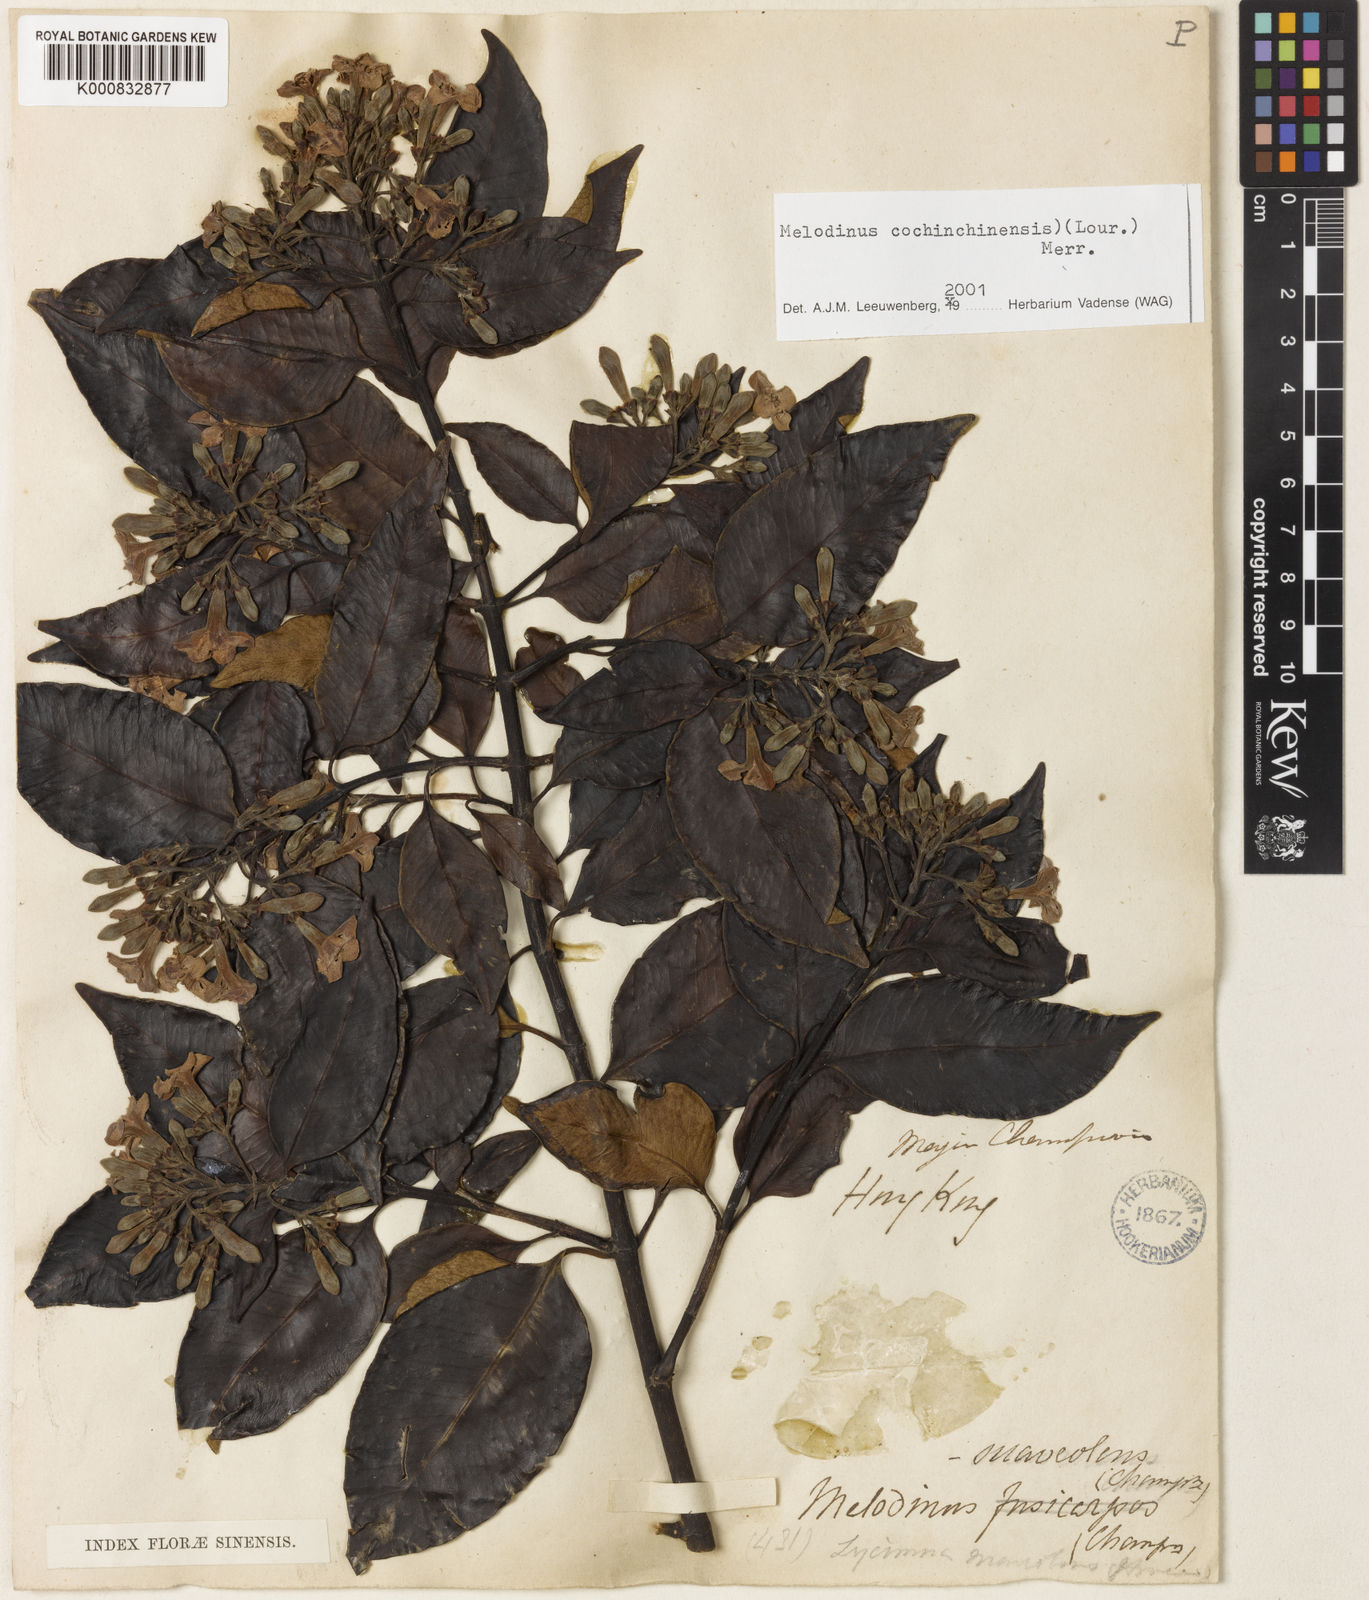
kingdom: Plantae
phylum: Tracheophyta
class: Magnoliopsida
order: Gentianales
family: Apocynaceae
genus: Melodinus
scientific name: Melodinus cochinchinensis
